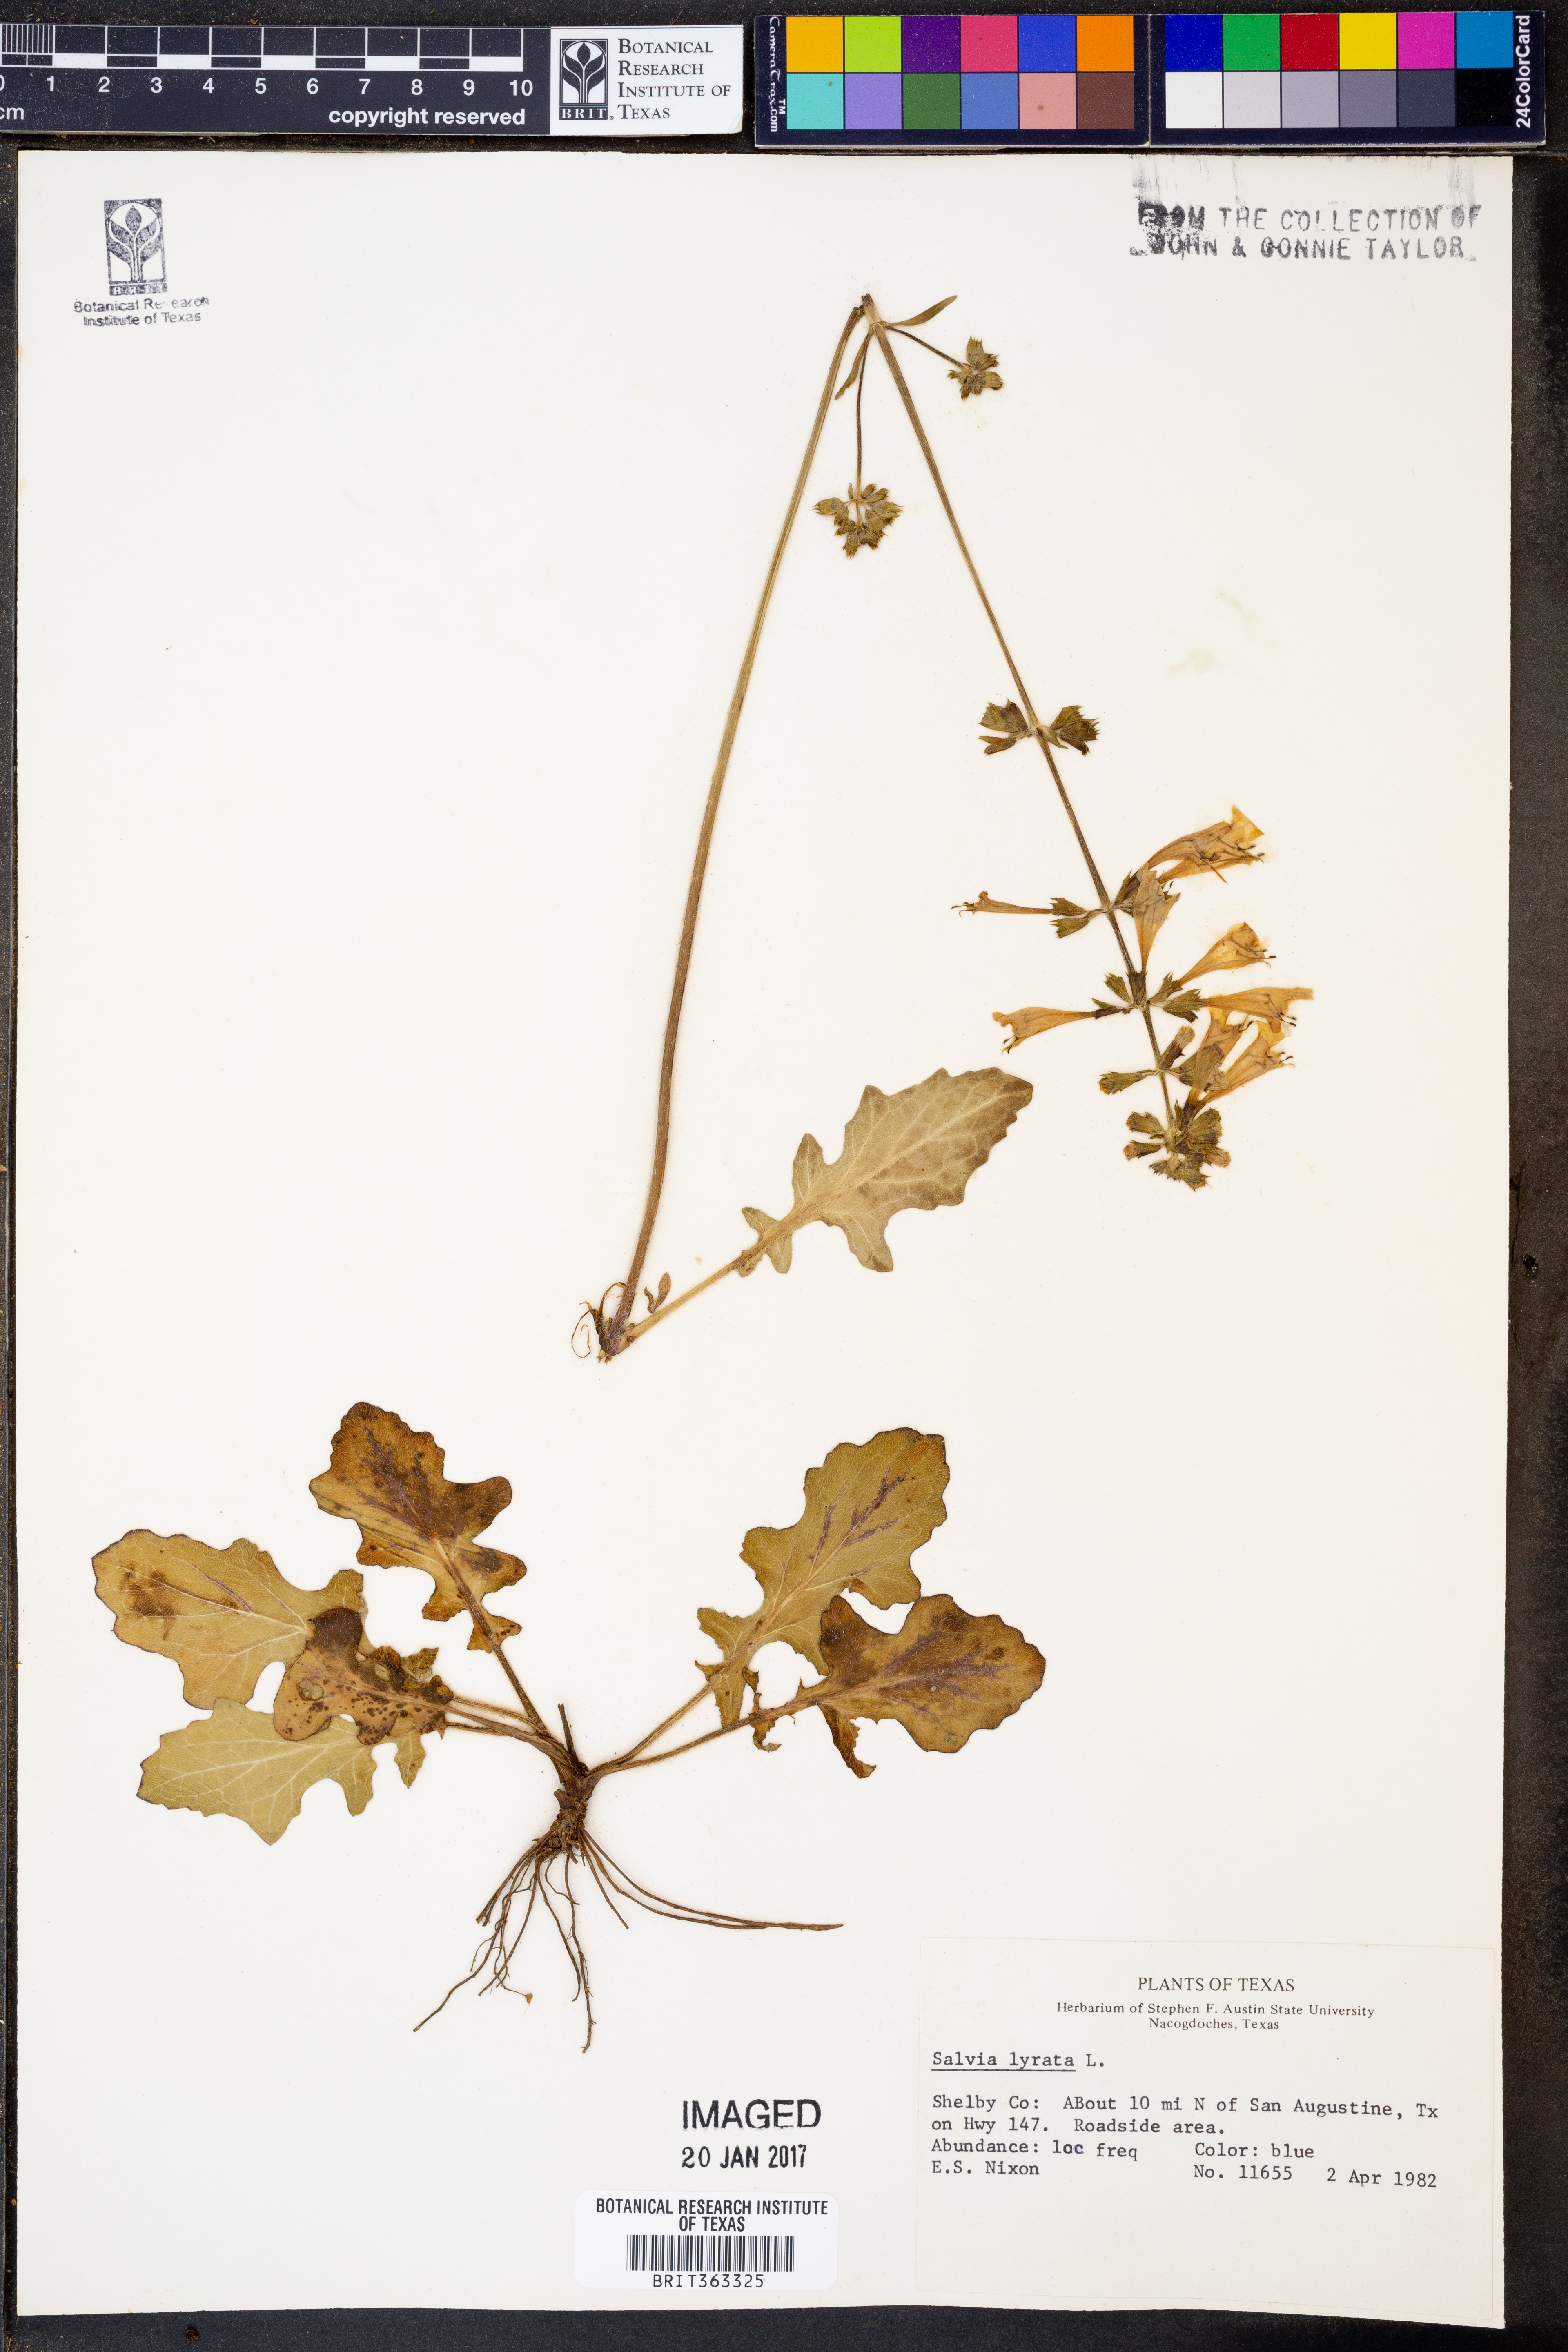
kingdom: Plantae
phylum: Tracheophyta
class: Magnoliopsida
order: Lamiales
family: Lamiaceae
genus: Salvia
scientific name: Salvia lyrata
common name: Cancerweed
